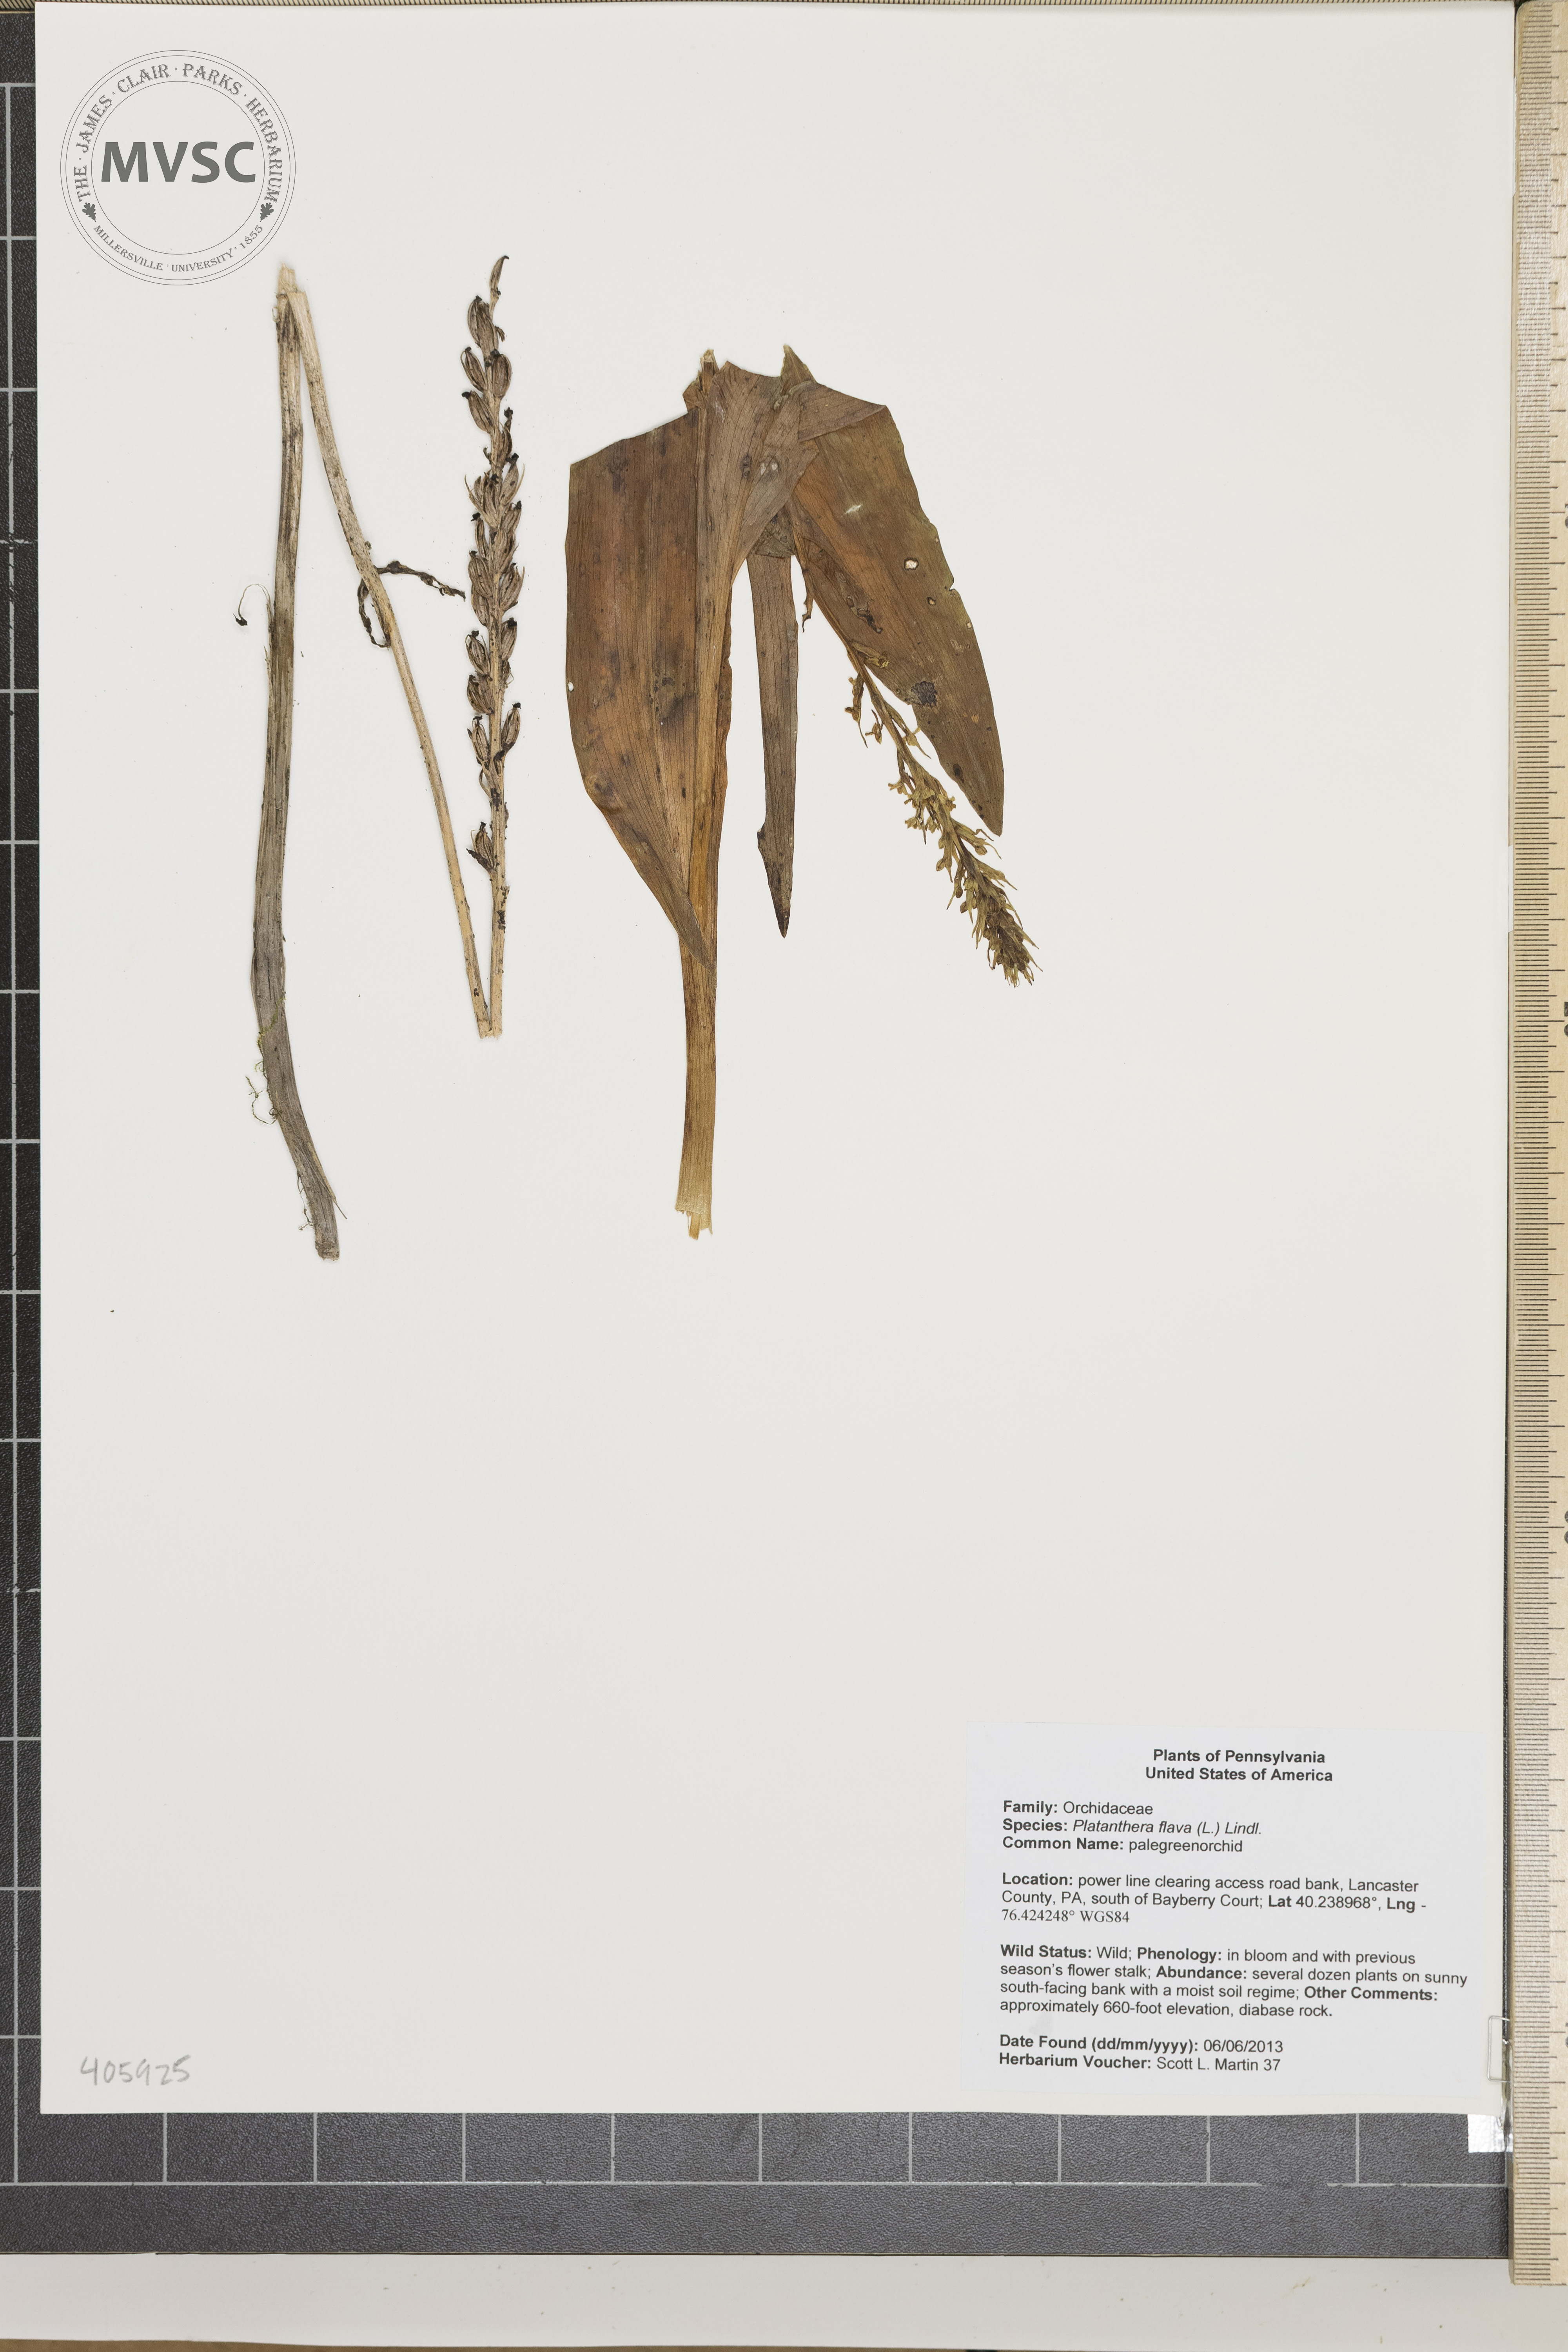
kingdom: Plantae
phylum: Tracheophyta
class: Liliopsida
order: Asparagales
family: Orchidaceae
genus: Platanthera
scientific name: Platanthera flava
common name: pale green orchid
